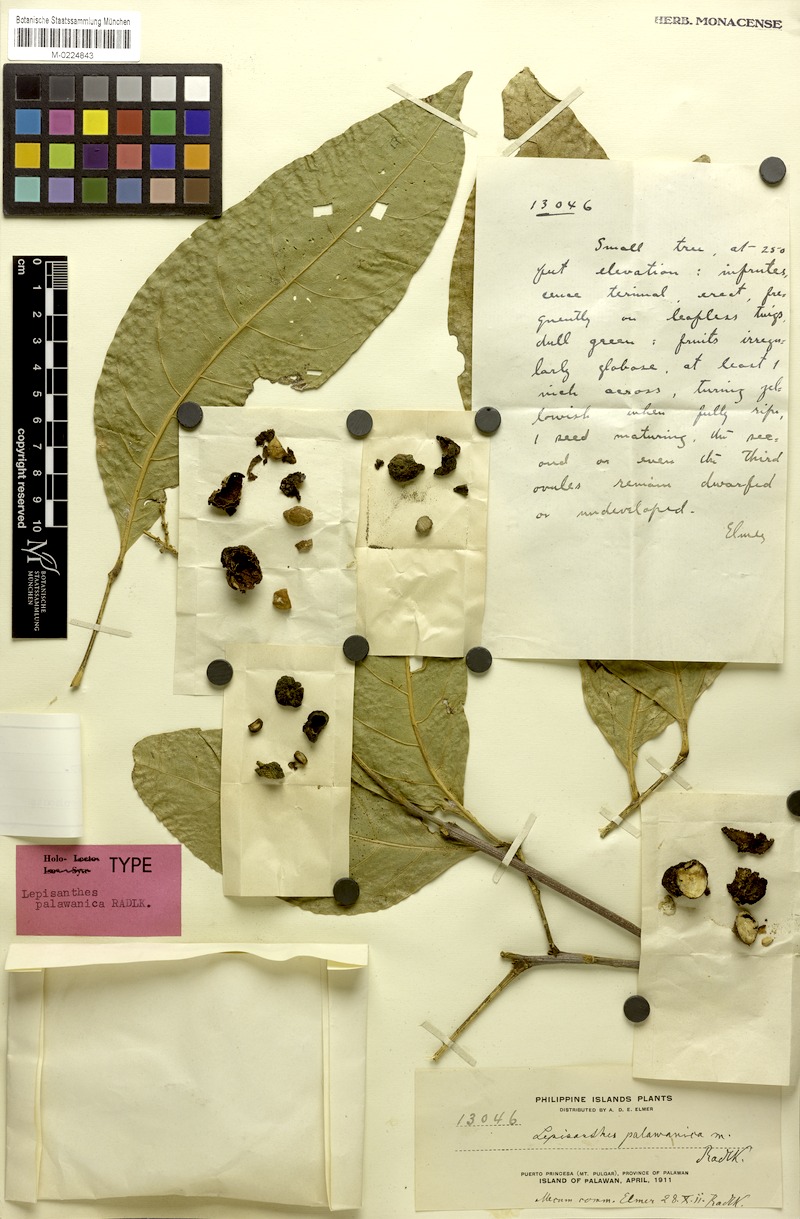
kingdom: Plantae
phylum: Tracheophyta
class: Magnoliopsida
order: Sapindales
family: Sapindaceae
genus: Alectryon
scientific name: Alectryon
